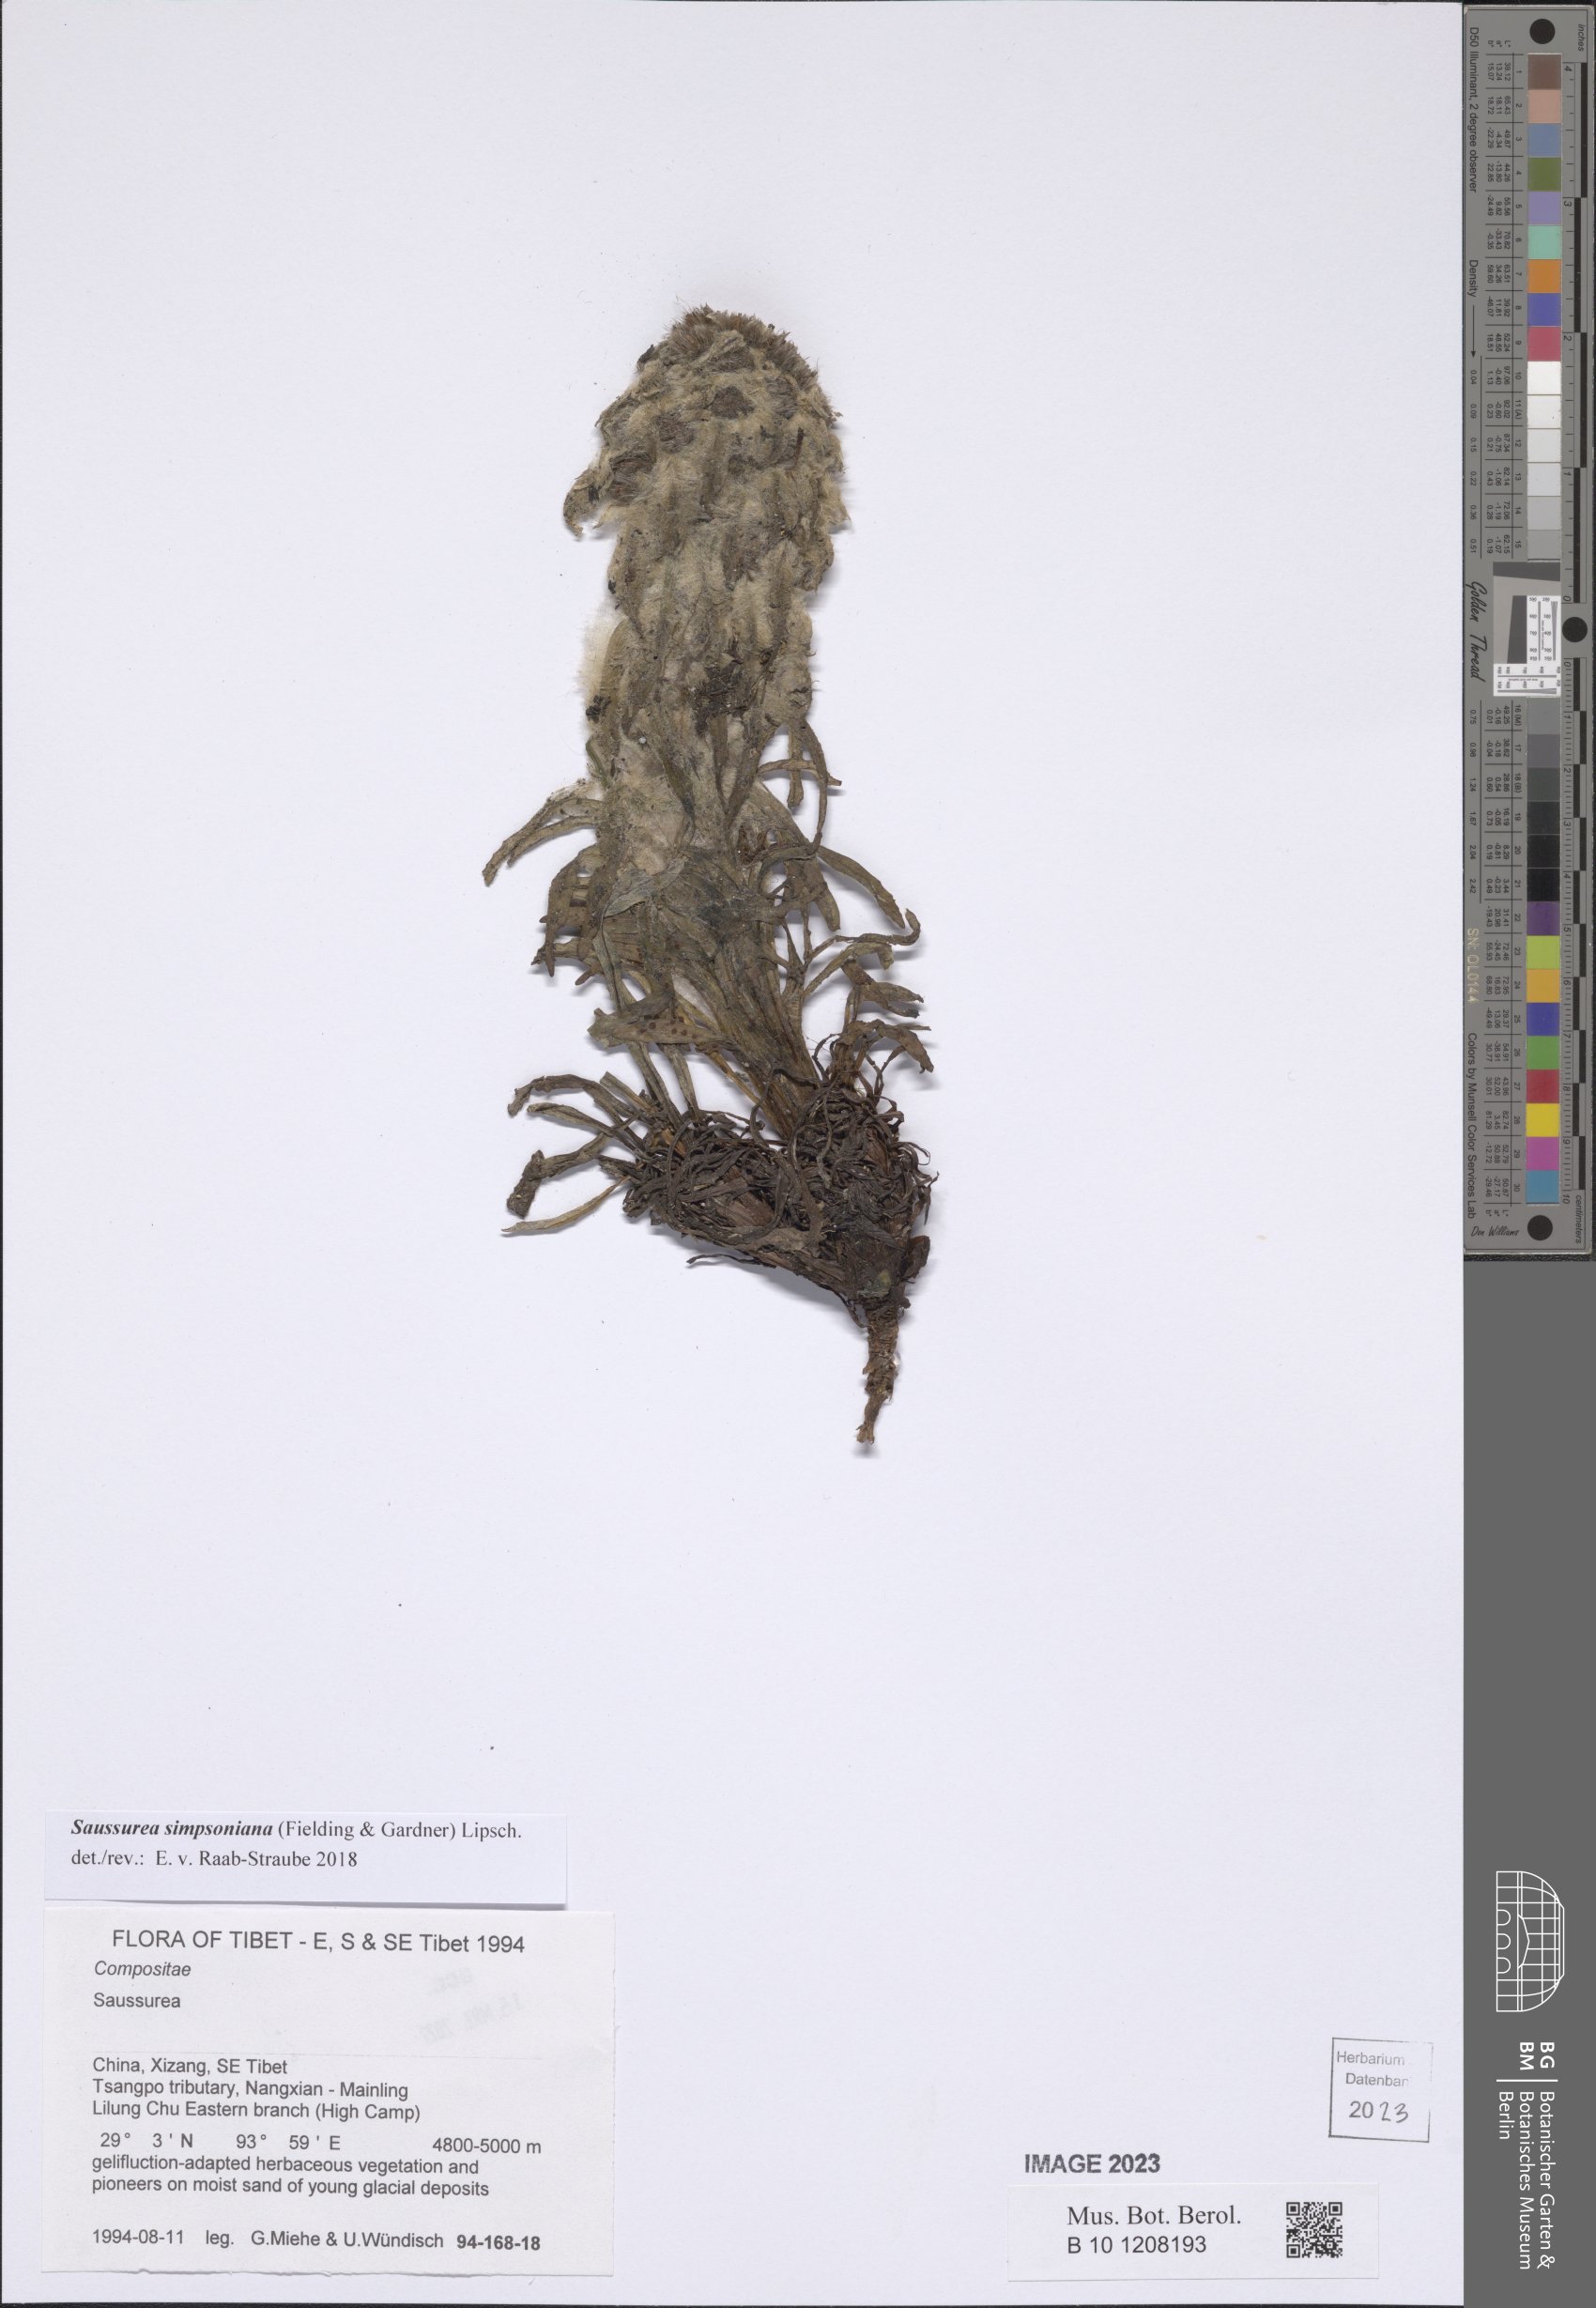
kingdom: Plantae
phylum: Tracheophyta
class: Magnoliopsida
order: Asterales
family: Asteraceae
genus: Saussurea
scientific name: Saussurea simpsoniana
